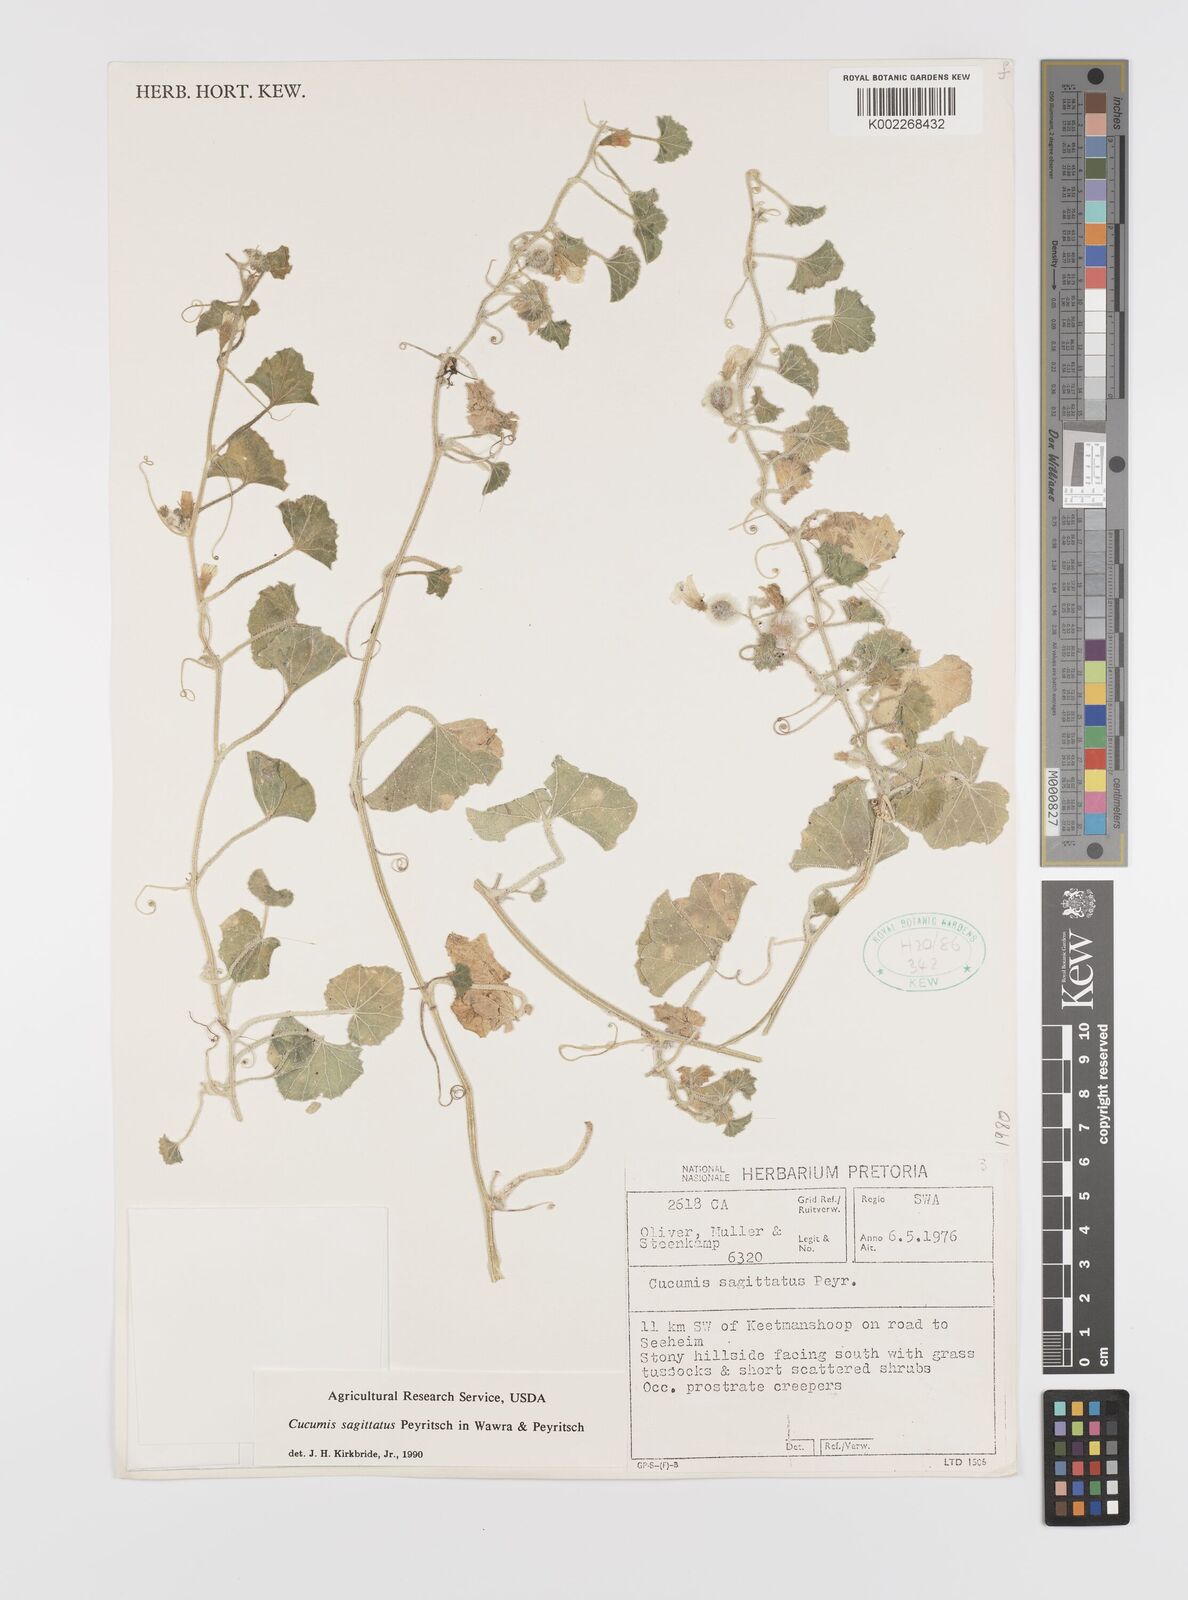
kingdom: Plantae
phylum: Tracheophyta
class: Magnoliopsida
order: Cucurbitales
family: Cucurbitaceae
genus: Cucumis
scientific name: Cucumis sagittatus
